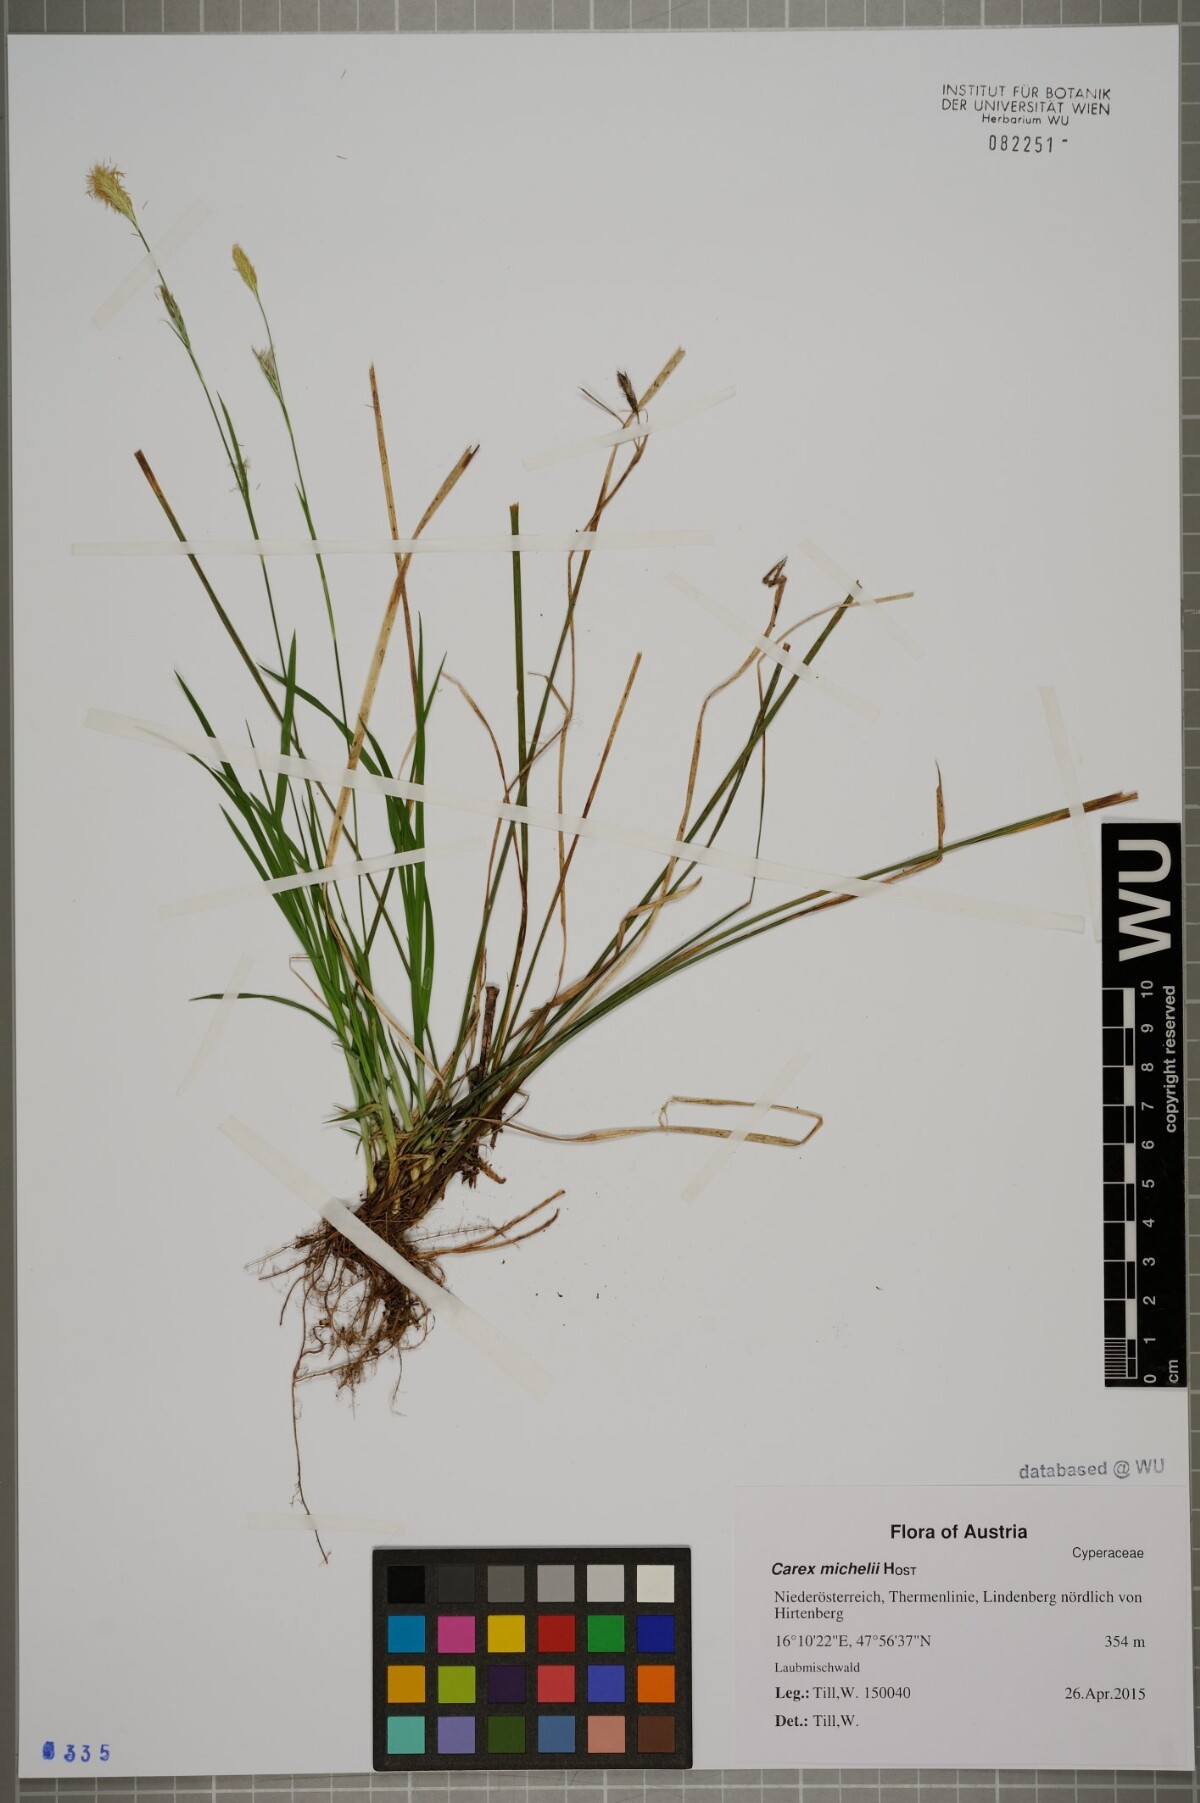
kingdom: Plantae
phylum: Tracheophyta
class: Liliopsida
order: Poales
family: Cyperaceae
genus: Carex
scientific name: Carex michelii
